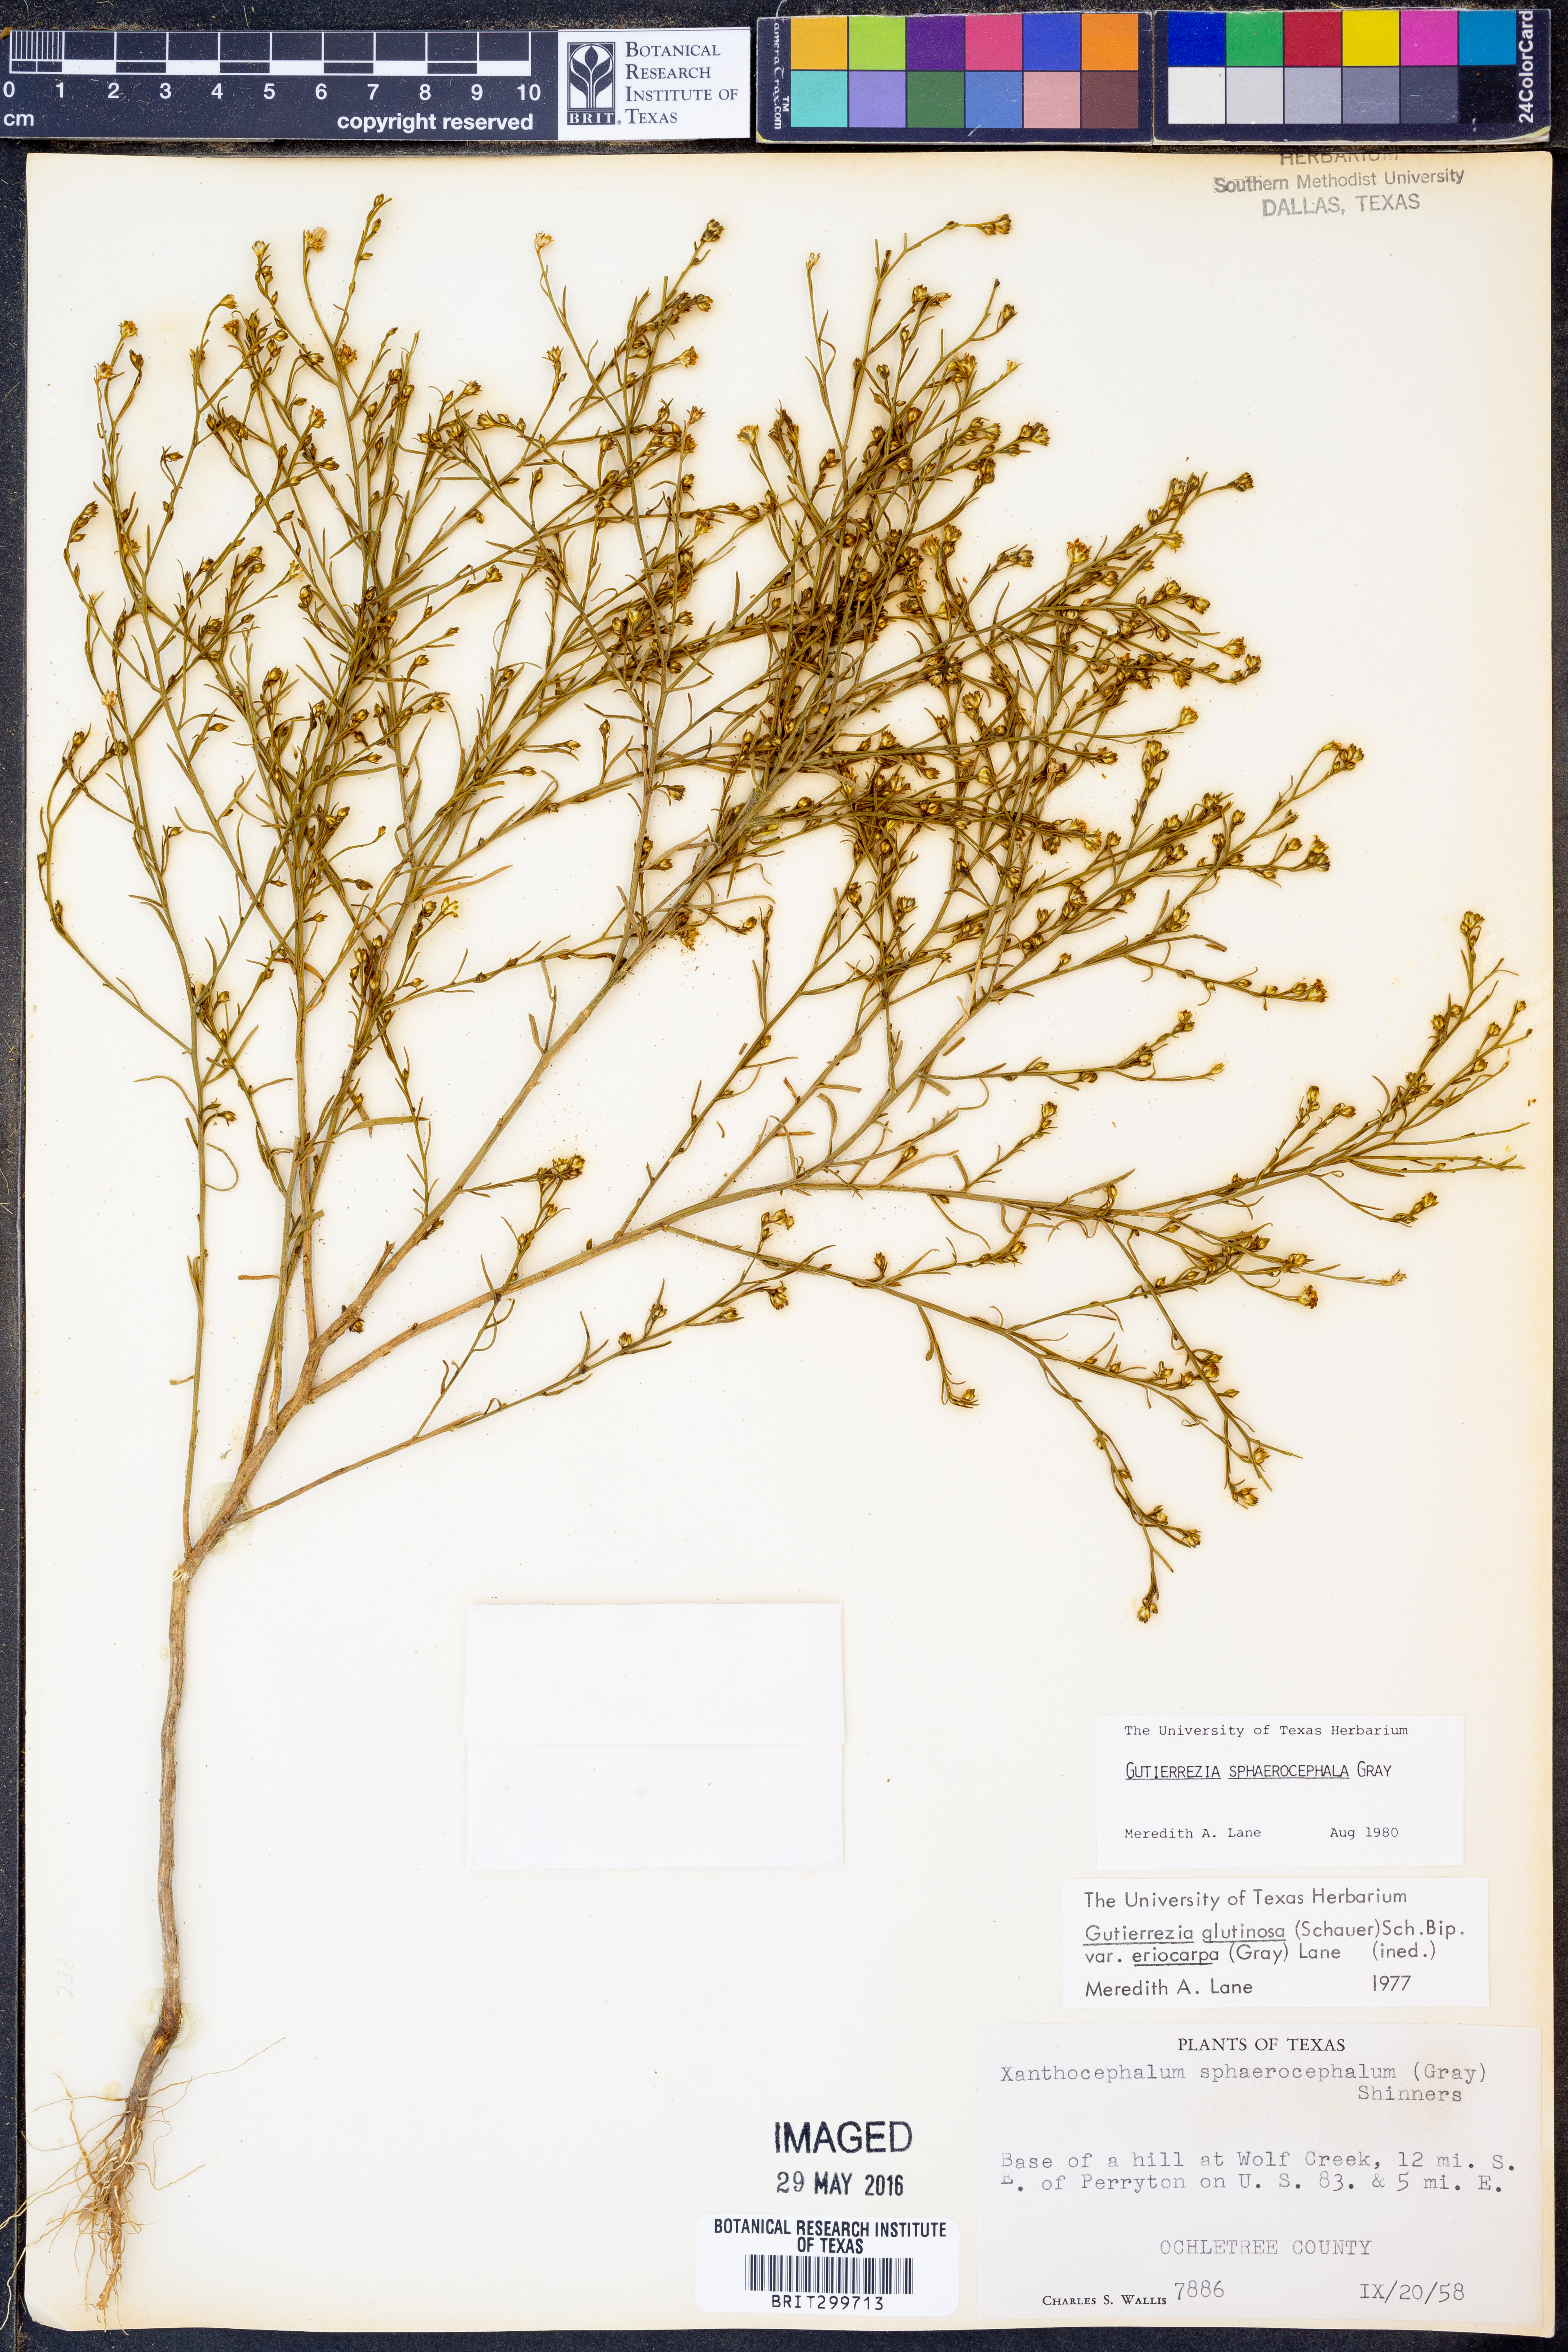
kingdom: Plantae
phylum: Tracheophyta
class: Magnoliopsida
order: Asterales
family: Asteraceae
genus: Gutierrezia
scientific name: Gutierrezia sphaerocephala
